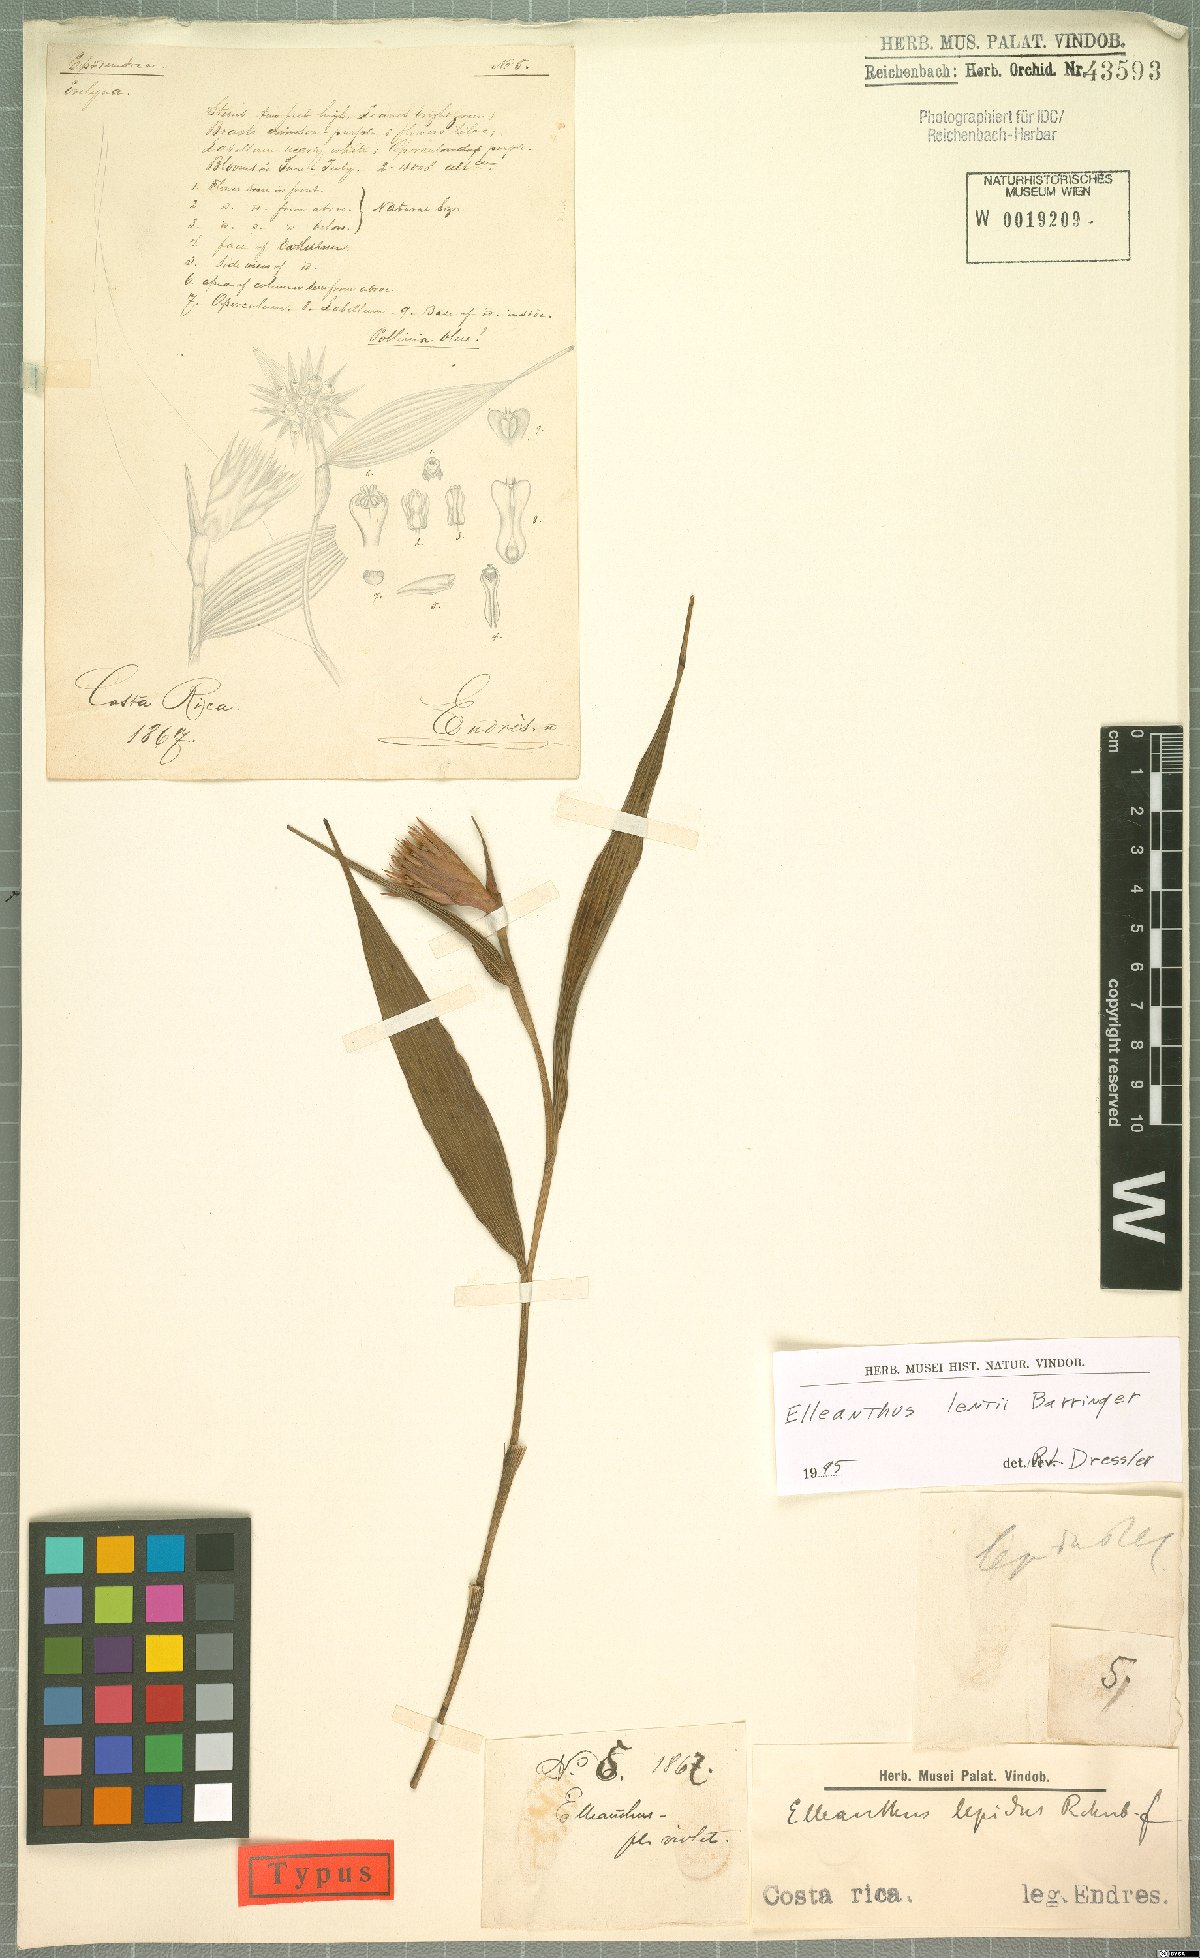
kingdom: Plantae
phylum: Tracheophyta
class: Liliopsida
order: Asparagales
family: Orchidaceae
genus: Elleanthus
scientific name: Elleanthus lentii
